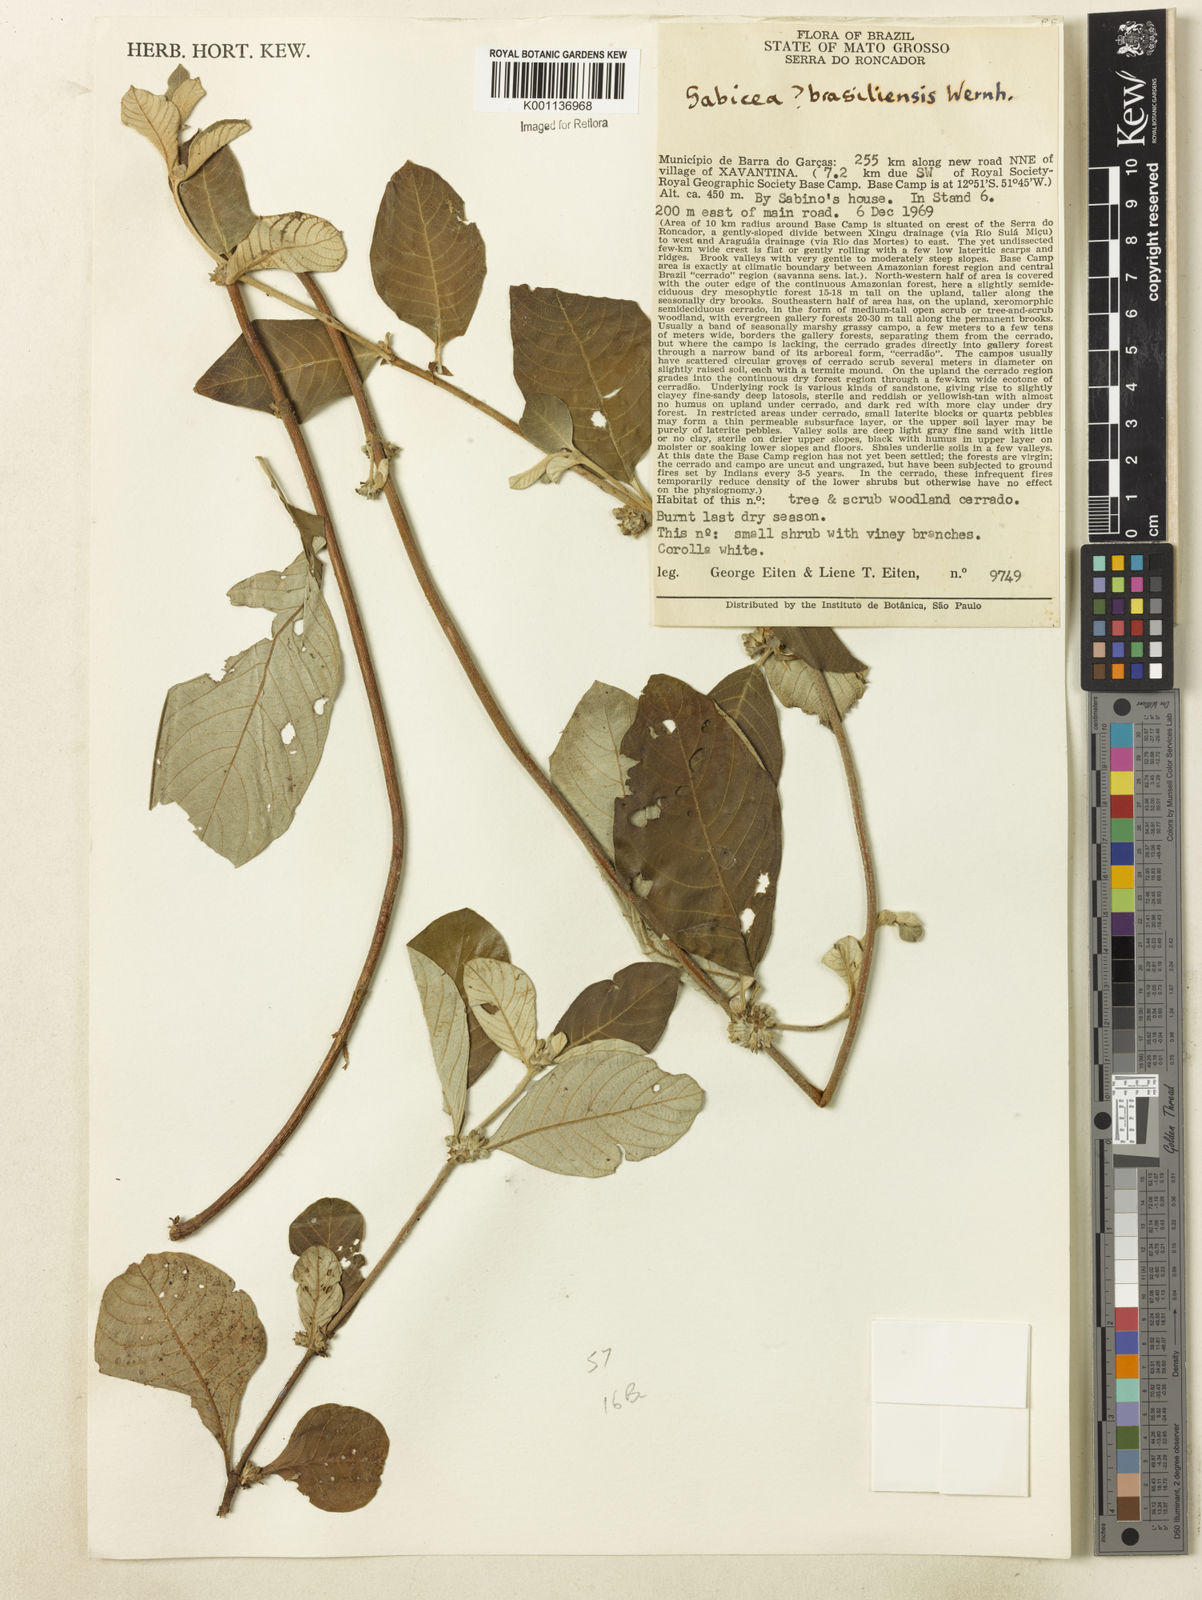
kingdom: Plantae
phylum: Tracheophyta
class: Magnoliopsida
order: Gentianales
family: Rubiaceae
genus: Sabicea
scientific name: Sabicea brasiliensis
